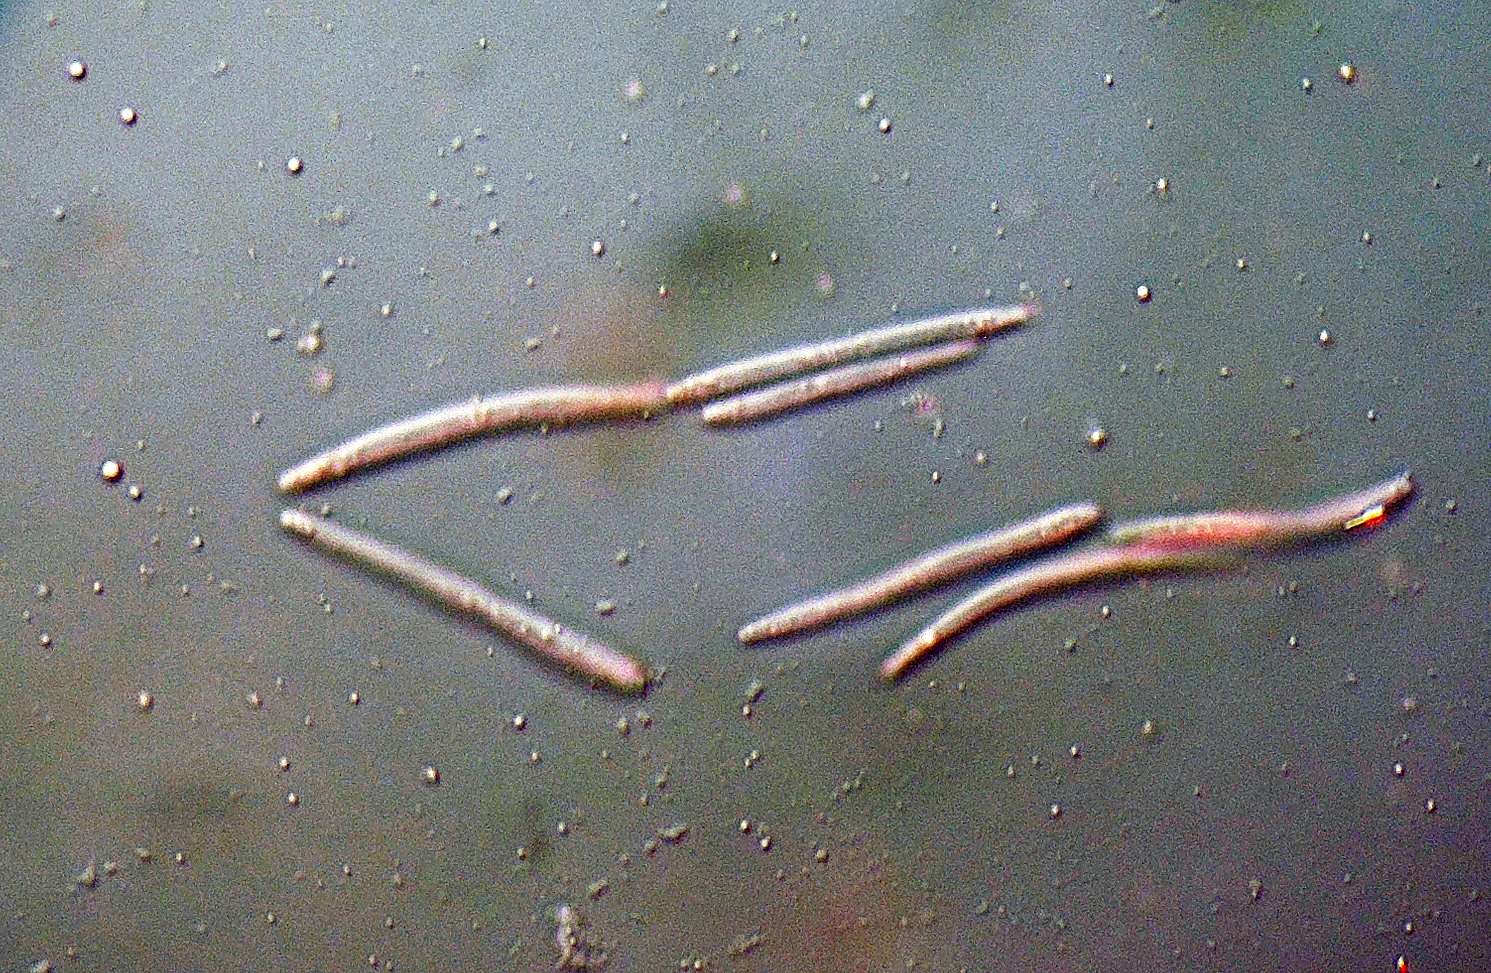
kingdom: Fungi
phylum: Ascomycota
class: Dothideomycetes
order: Mycosphaerellales
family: Mycosphaerellaceae
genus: Septoria
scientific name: Septoria chelidonii
